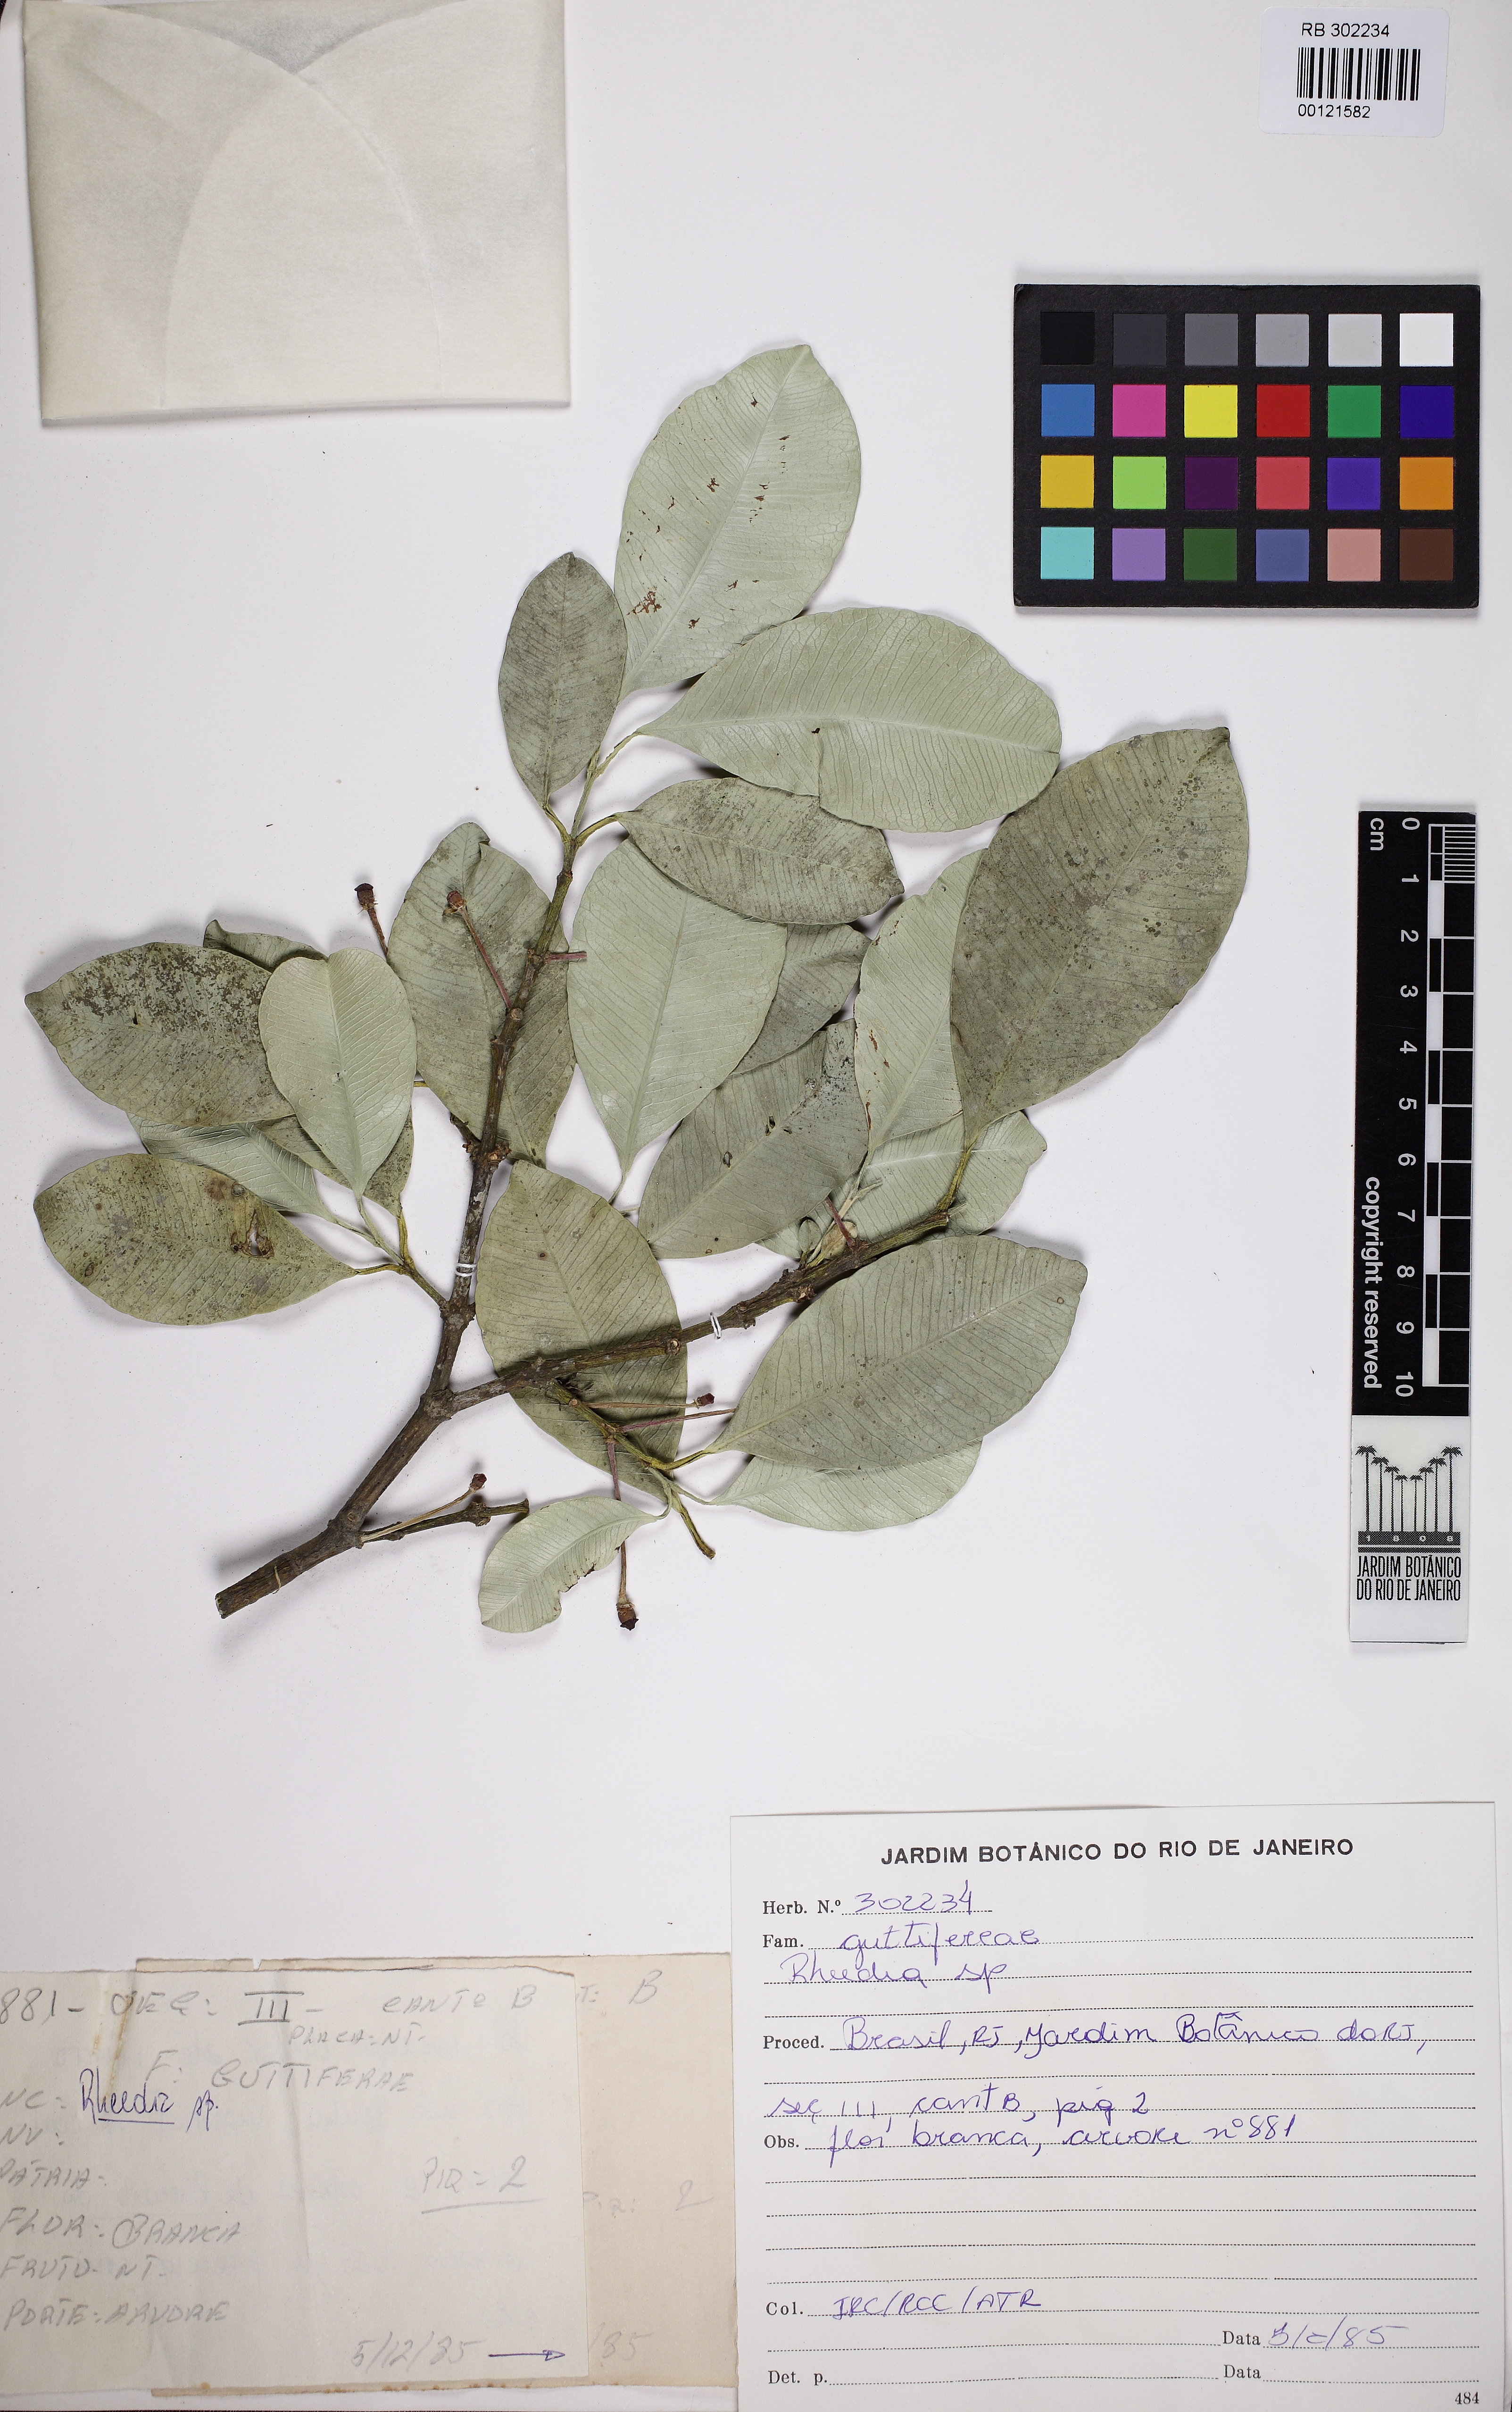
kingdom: Plantae
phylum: Tracheophyta
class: Magnoliopsida
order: Malpighiales
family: Clusiaceae
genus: Garcinia
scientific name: Garcinia madruno
